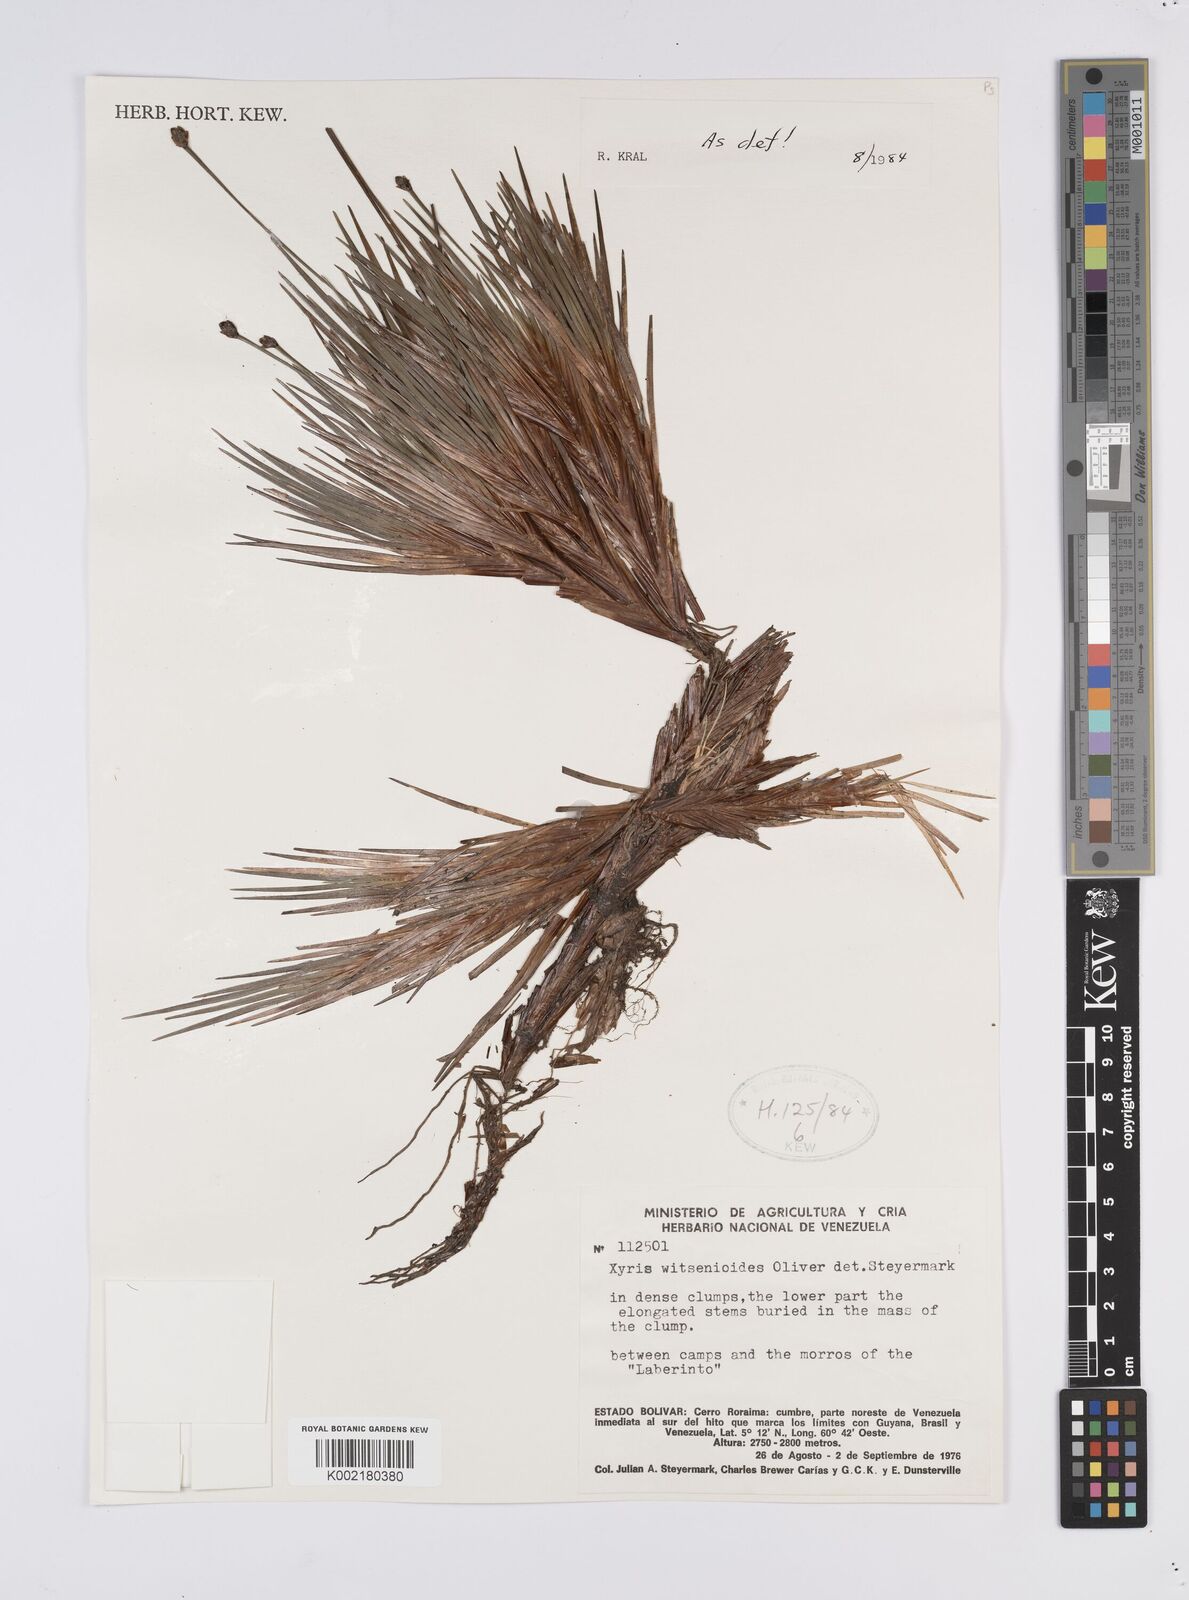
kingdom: Plantae
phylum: Tracheophyta
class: Liliopsida
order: Poales
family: Xyridaceae
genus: Xyris
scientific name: Xyris witsenioides
